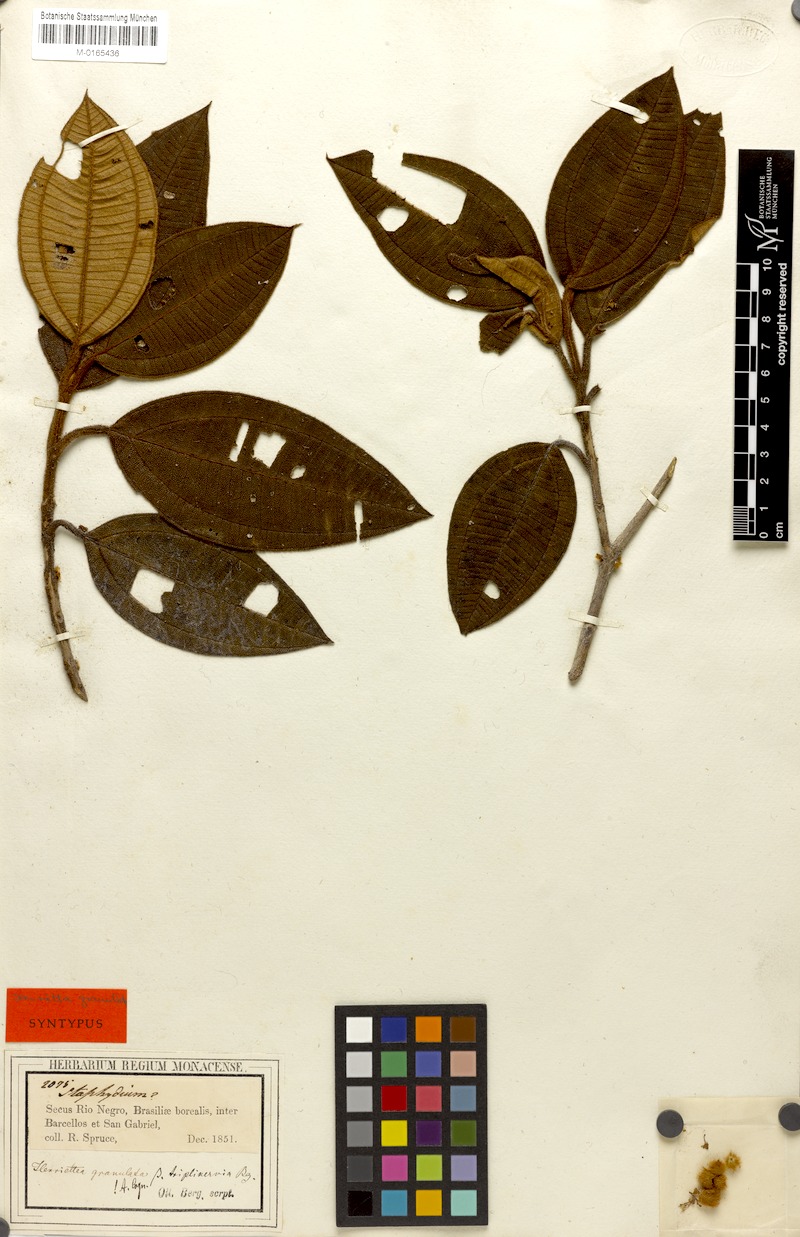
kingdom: Plantae
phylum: Tracheophyta
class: Magnoliopsida
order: Myrtales
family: Melastomataceae
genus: Henriettea
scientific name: Henriettea granulata
